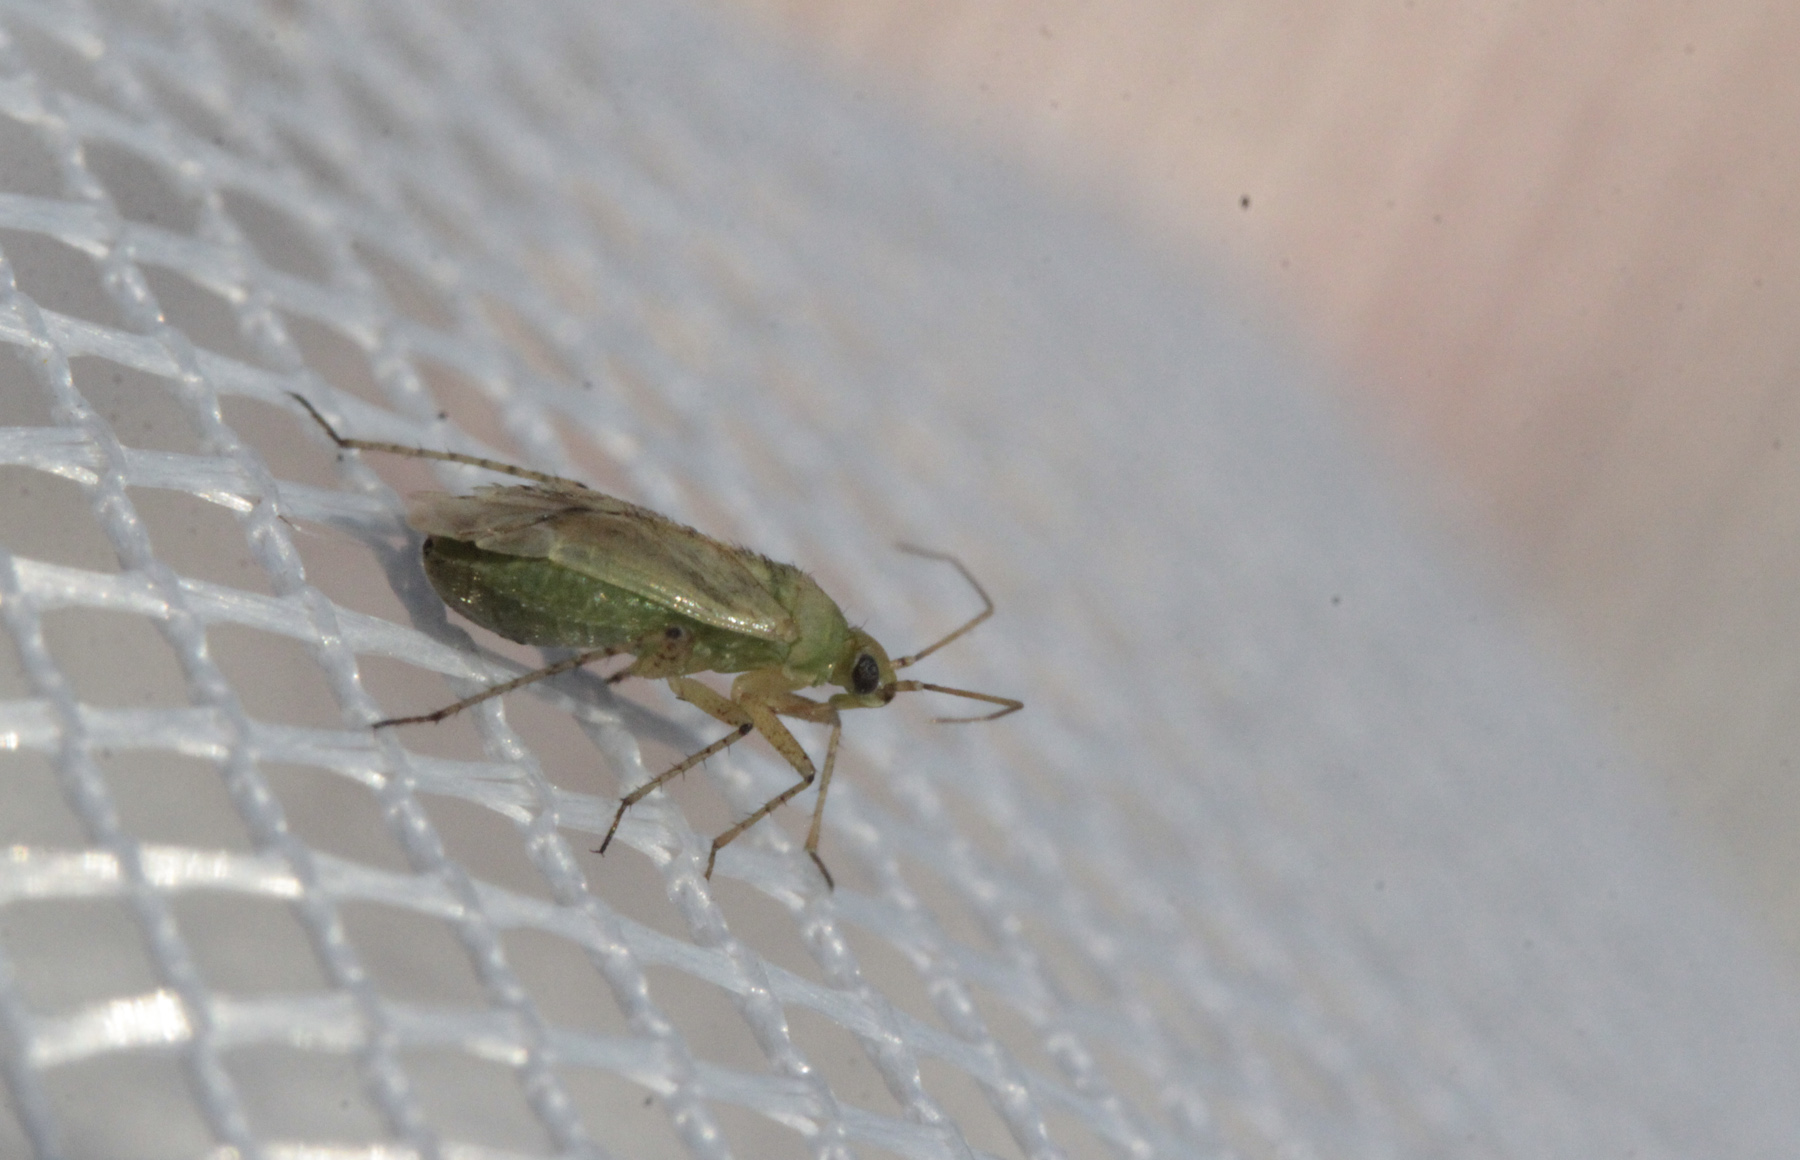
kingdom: Animalia
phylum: Arthropoda
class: Insecta
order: Hemiptera
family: Miridae
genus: Plagiognathus
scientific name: Plagiognathus chrysanthemi
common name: Plant bug
